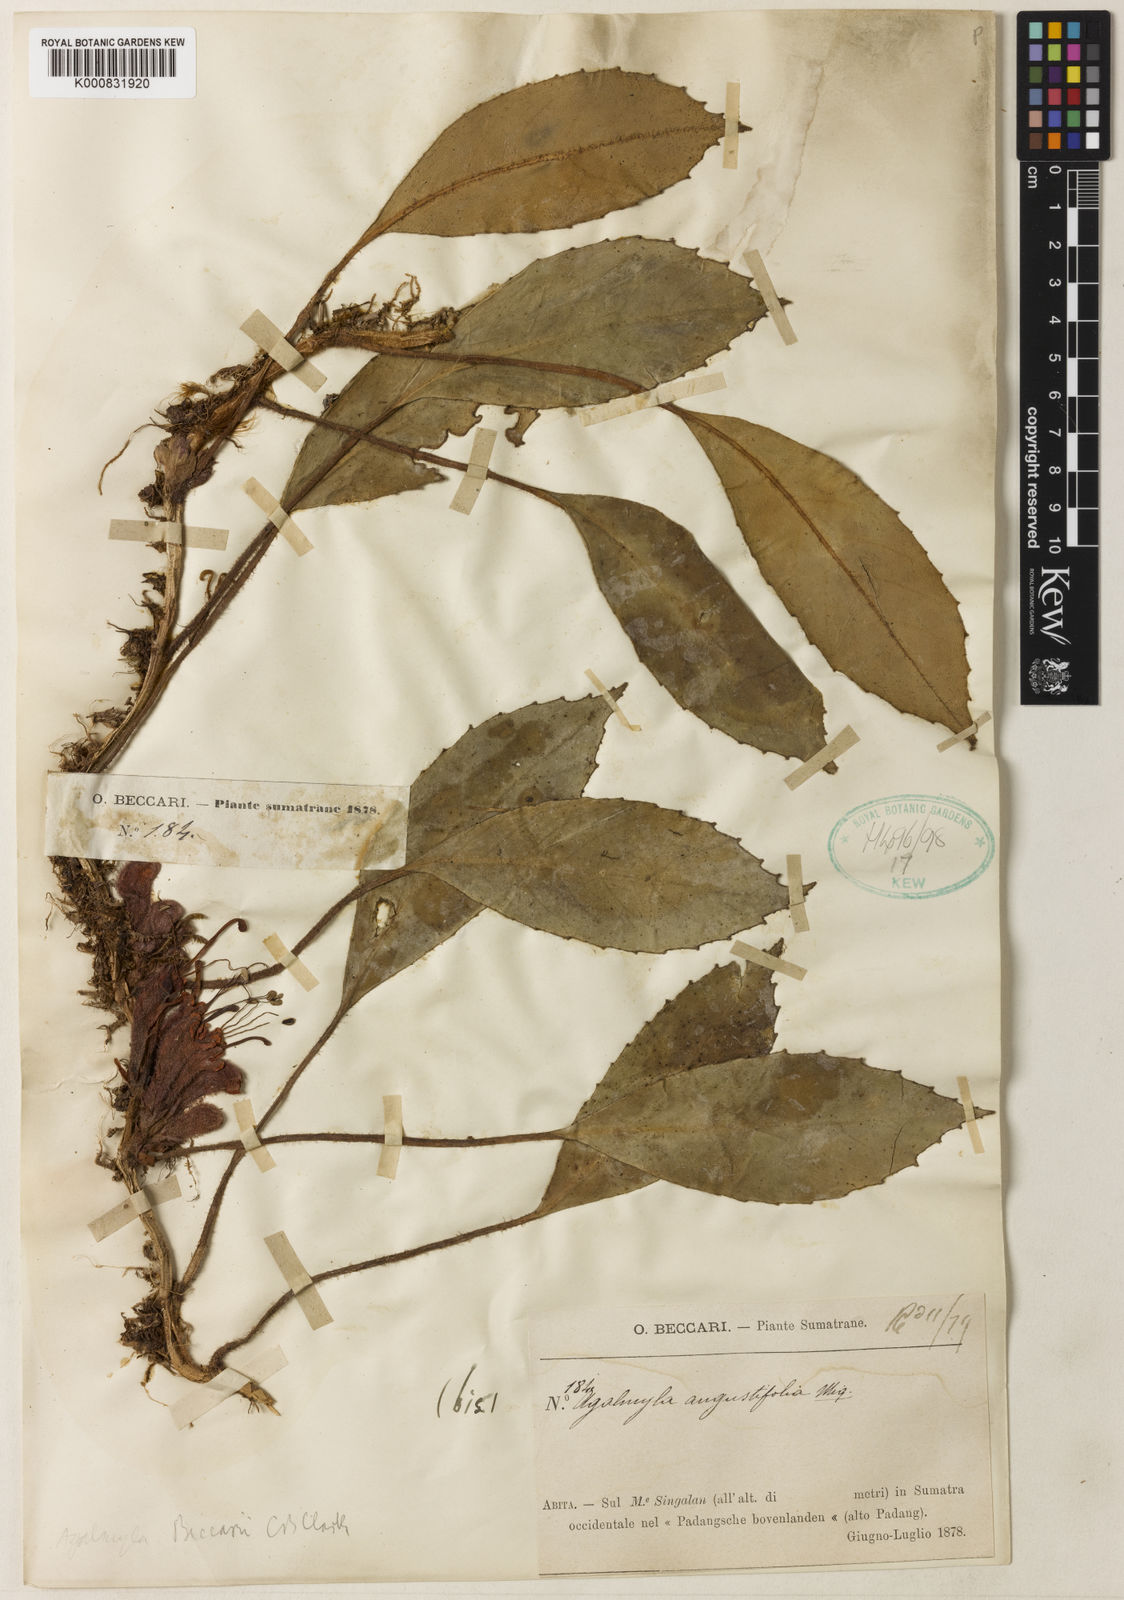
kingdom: Plantae
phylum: Tracheophyta
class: Magnoliopsida
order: Lamiales
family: Gesneriaceae
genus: Agalmyla
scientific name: Agalmyla beccarii
